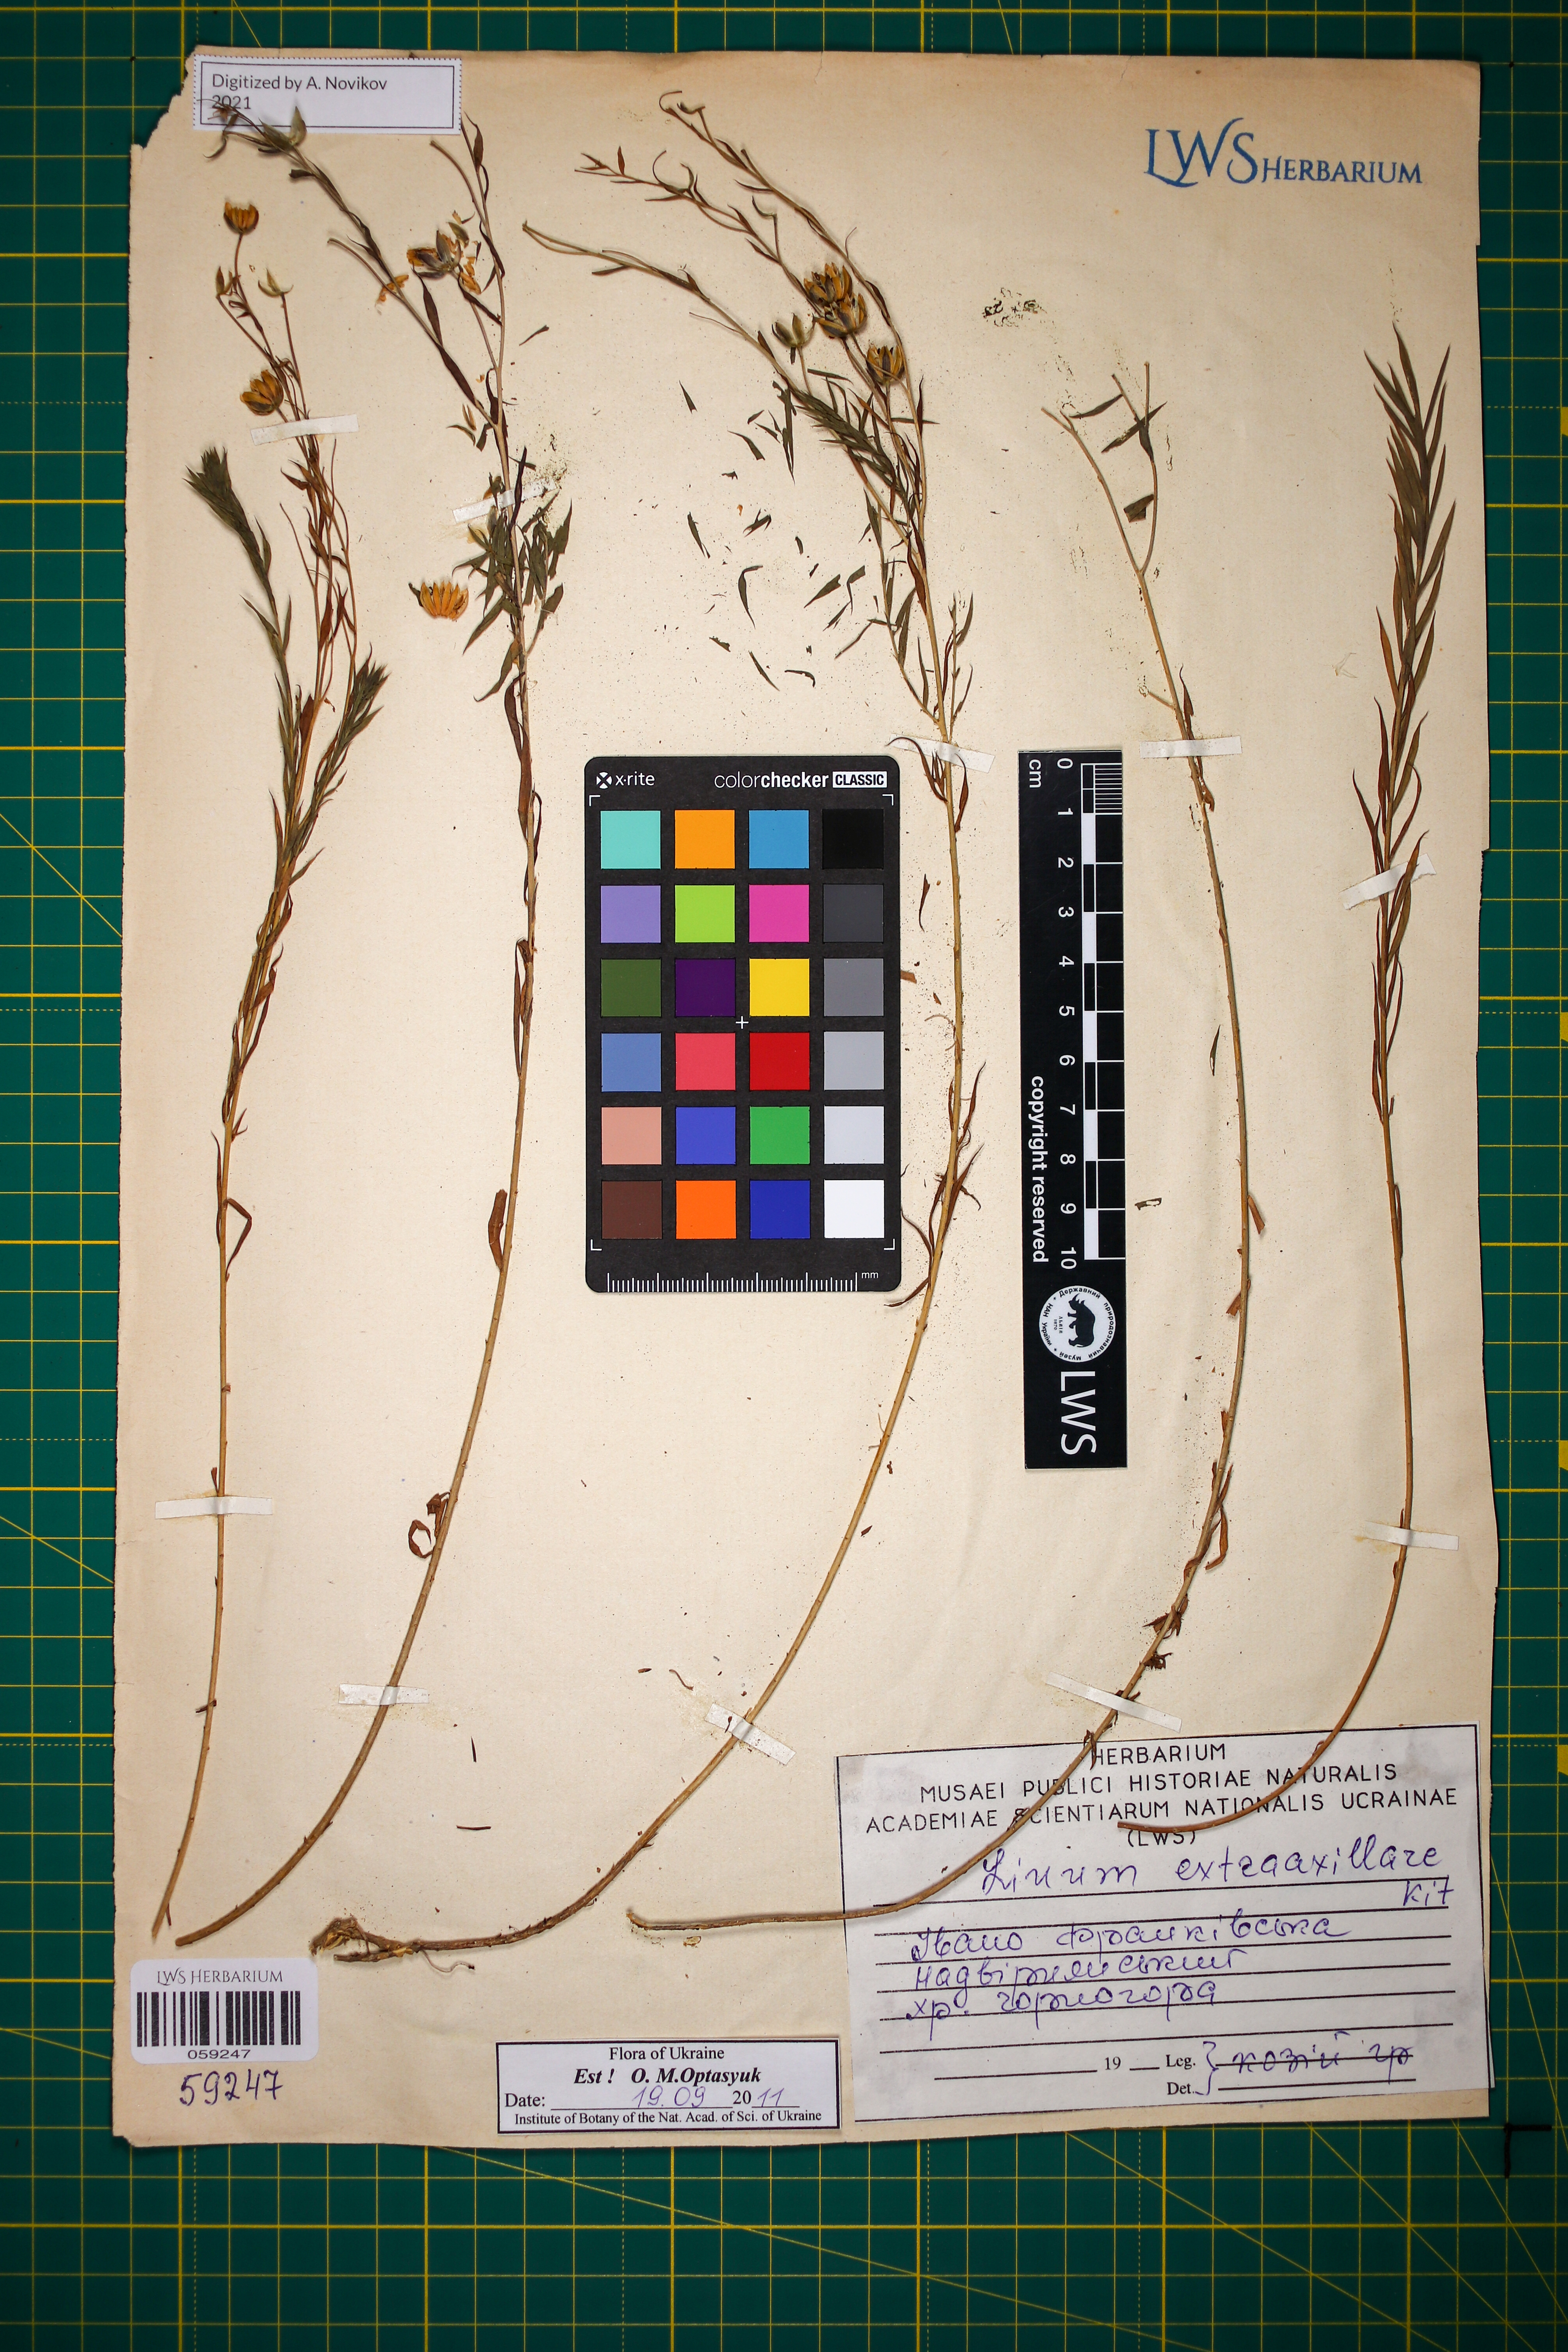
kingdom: Plantae
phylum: Tracheophyta
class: Magnoliopsida
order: Malpighiales
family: Linaceae
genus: Linum
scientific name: Linum perenne
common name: Blue flax
